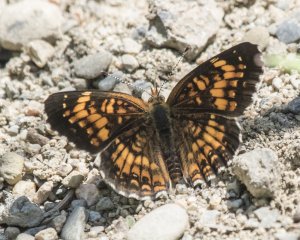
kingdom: Animalia
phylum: Arthropoda
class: Insecta
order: Lepidoptera
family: Nymphalidae
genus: Chlosyne
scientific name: Chlosyne harrisii
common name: Harris's Checkerspot
